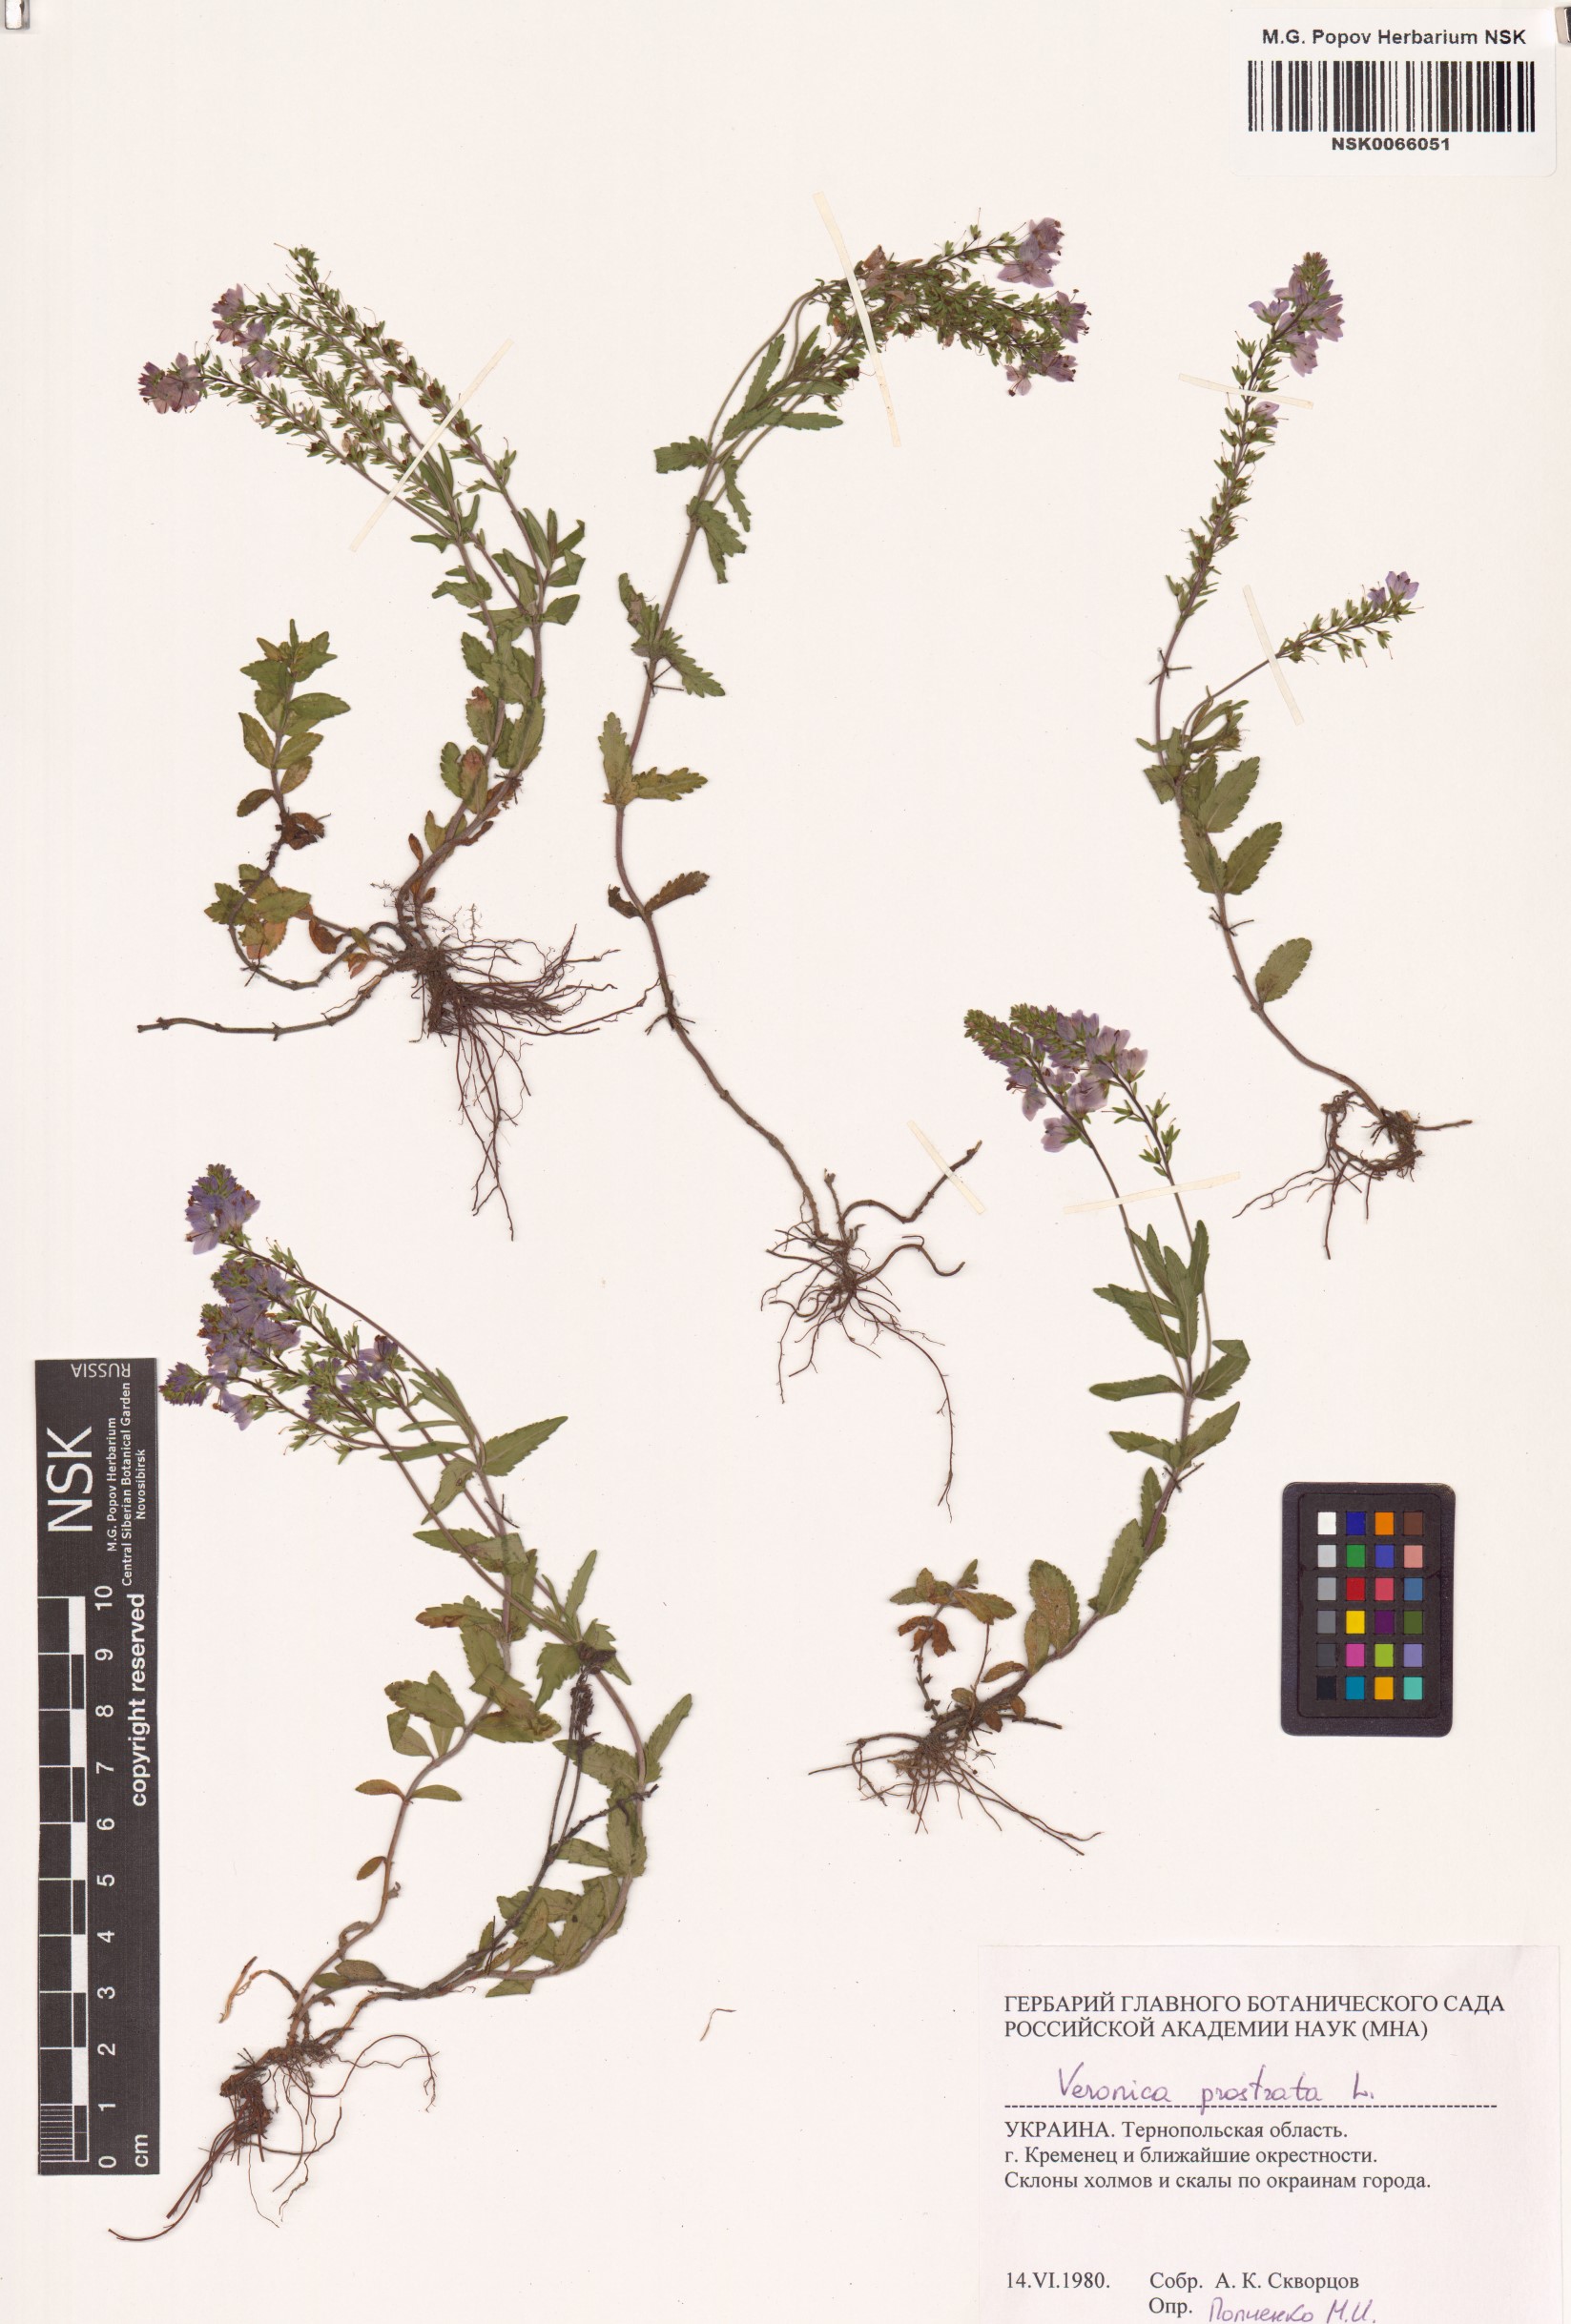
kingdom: Plantae
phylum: Tracheophyta
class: Magnoliopsida
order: Lamiales
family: Plantaginaceae
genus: Veronica
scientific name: Veronica prostrata
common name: Prostrate speedwell
